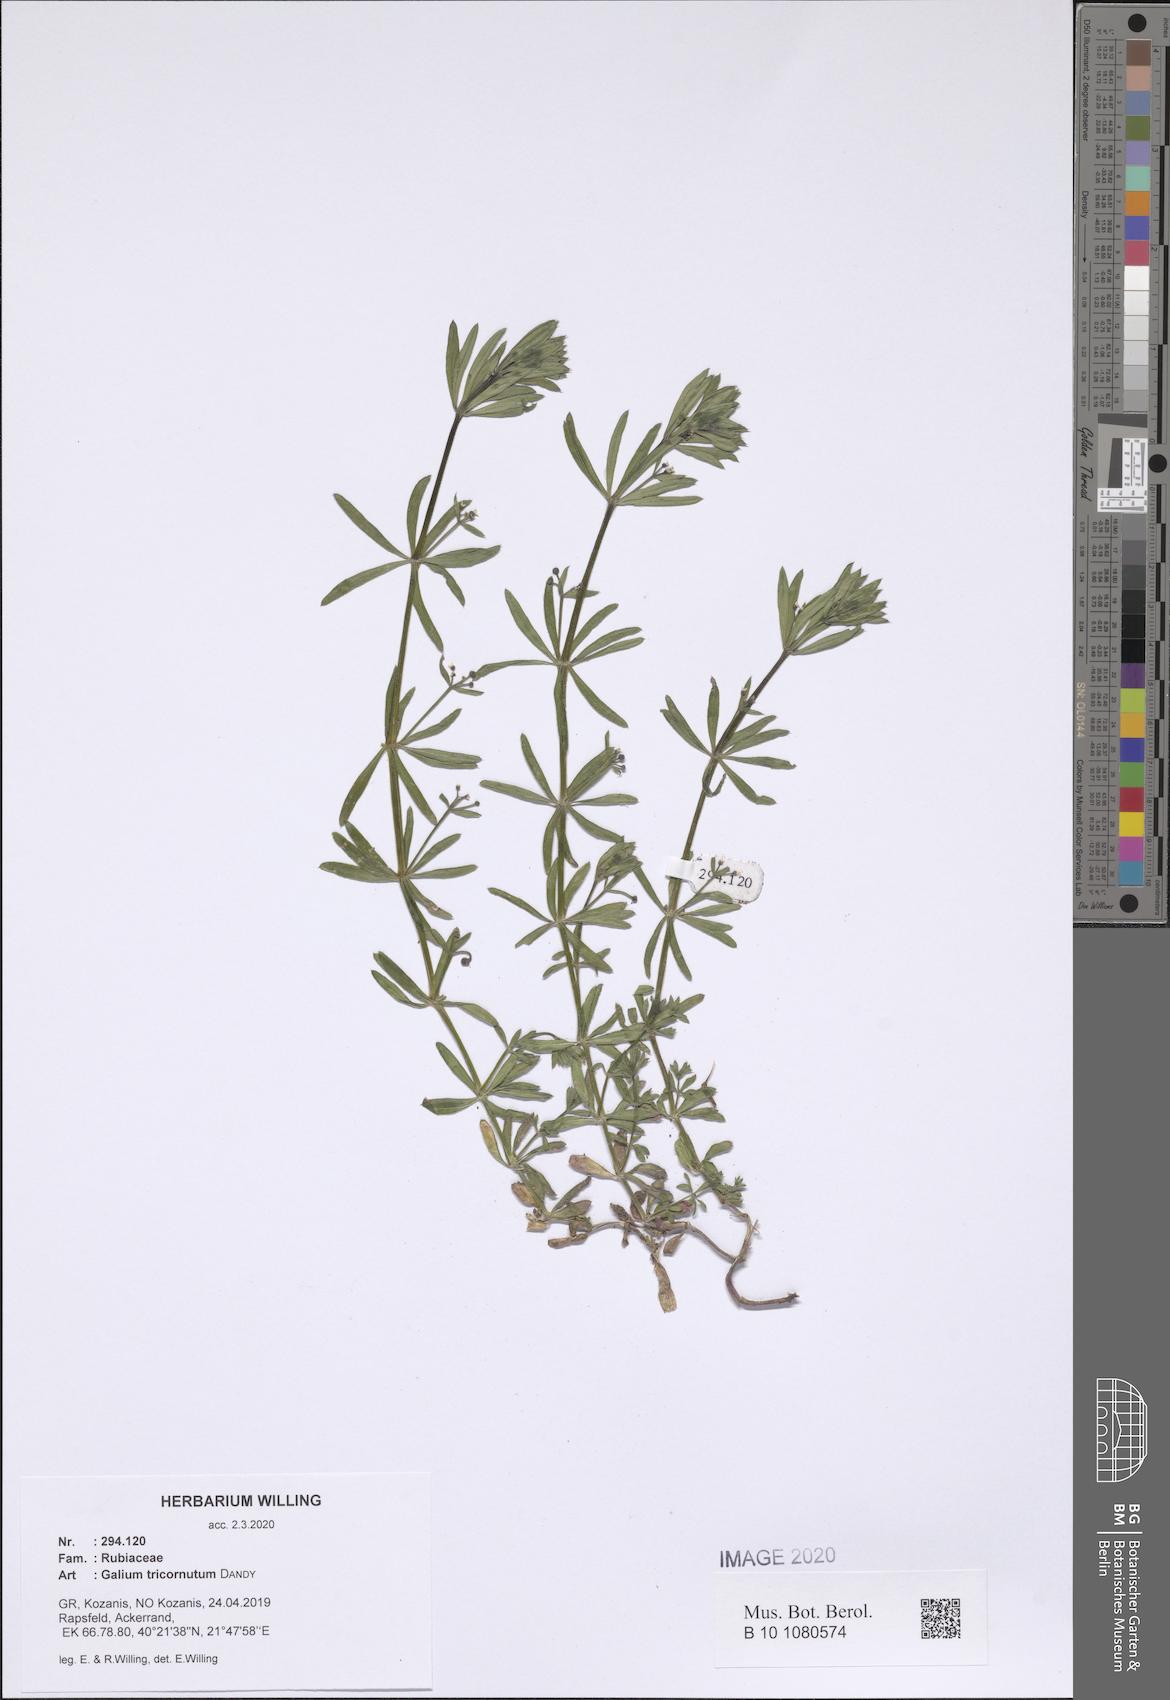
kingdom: Plantae
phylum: Tracheophyta
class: Magnoliopsida
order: Gentianales
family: Rubiaceae
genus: Galium
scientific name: Galium tricornutum
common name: Corn cleavers
